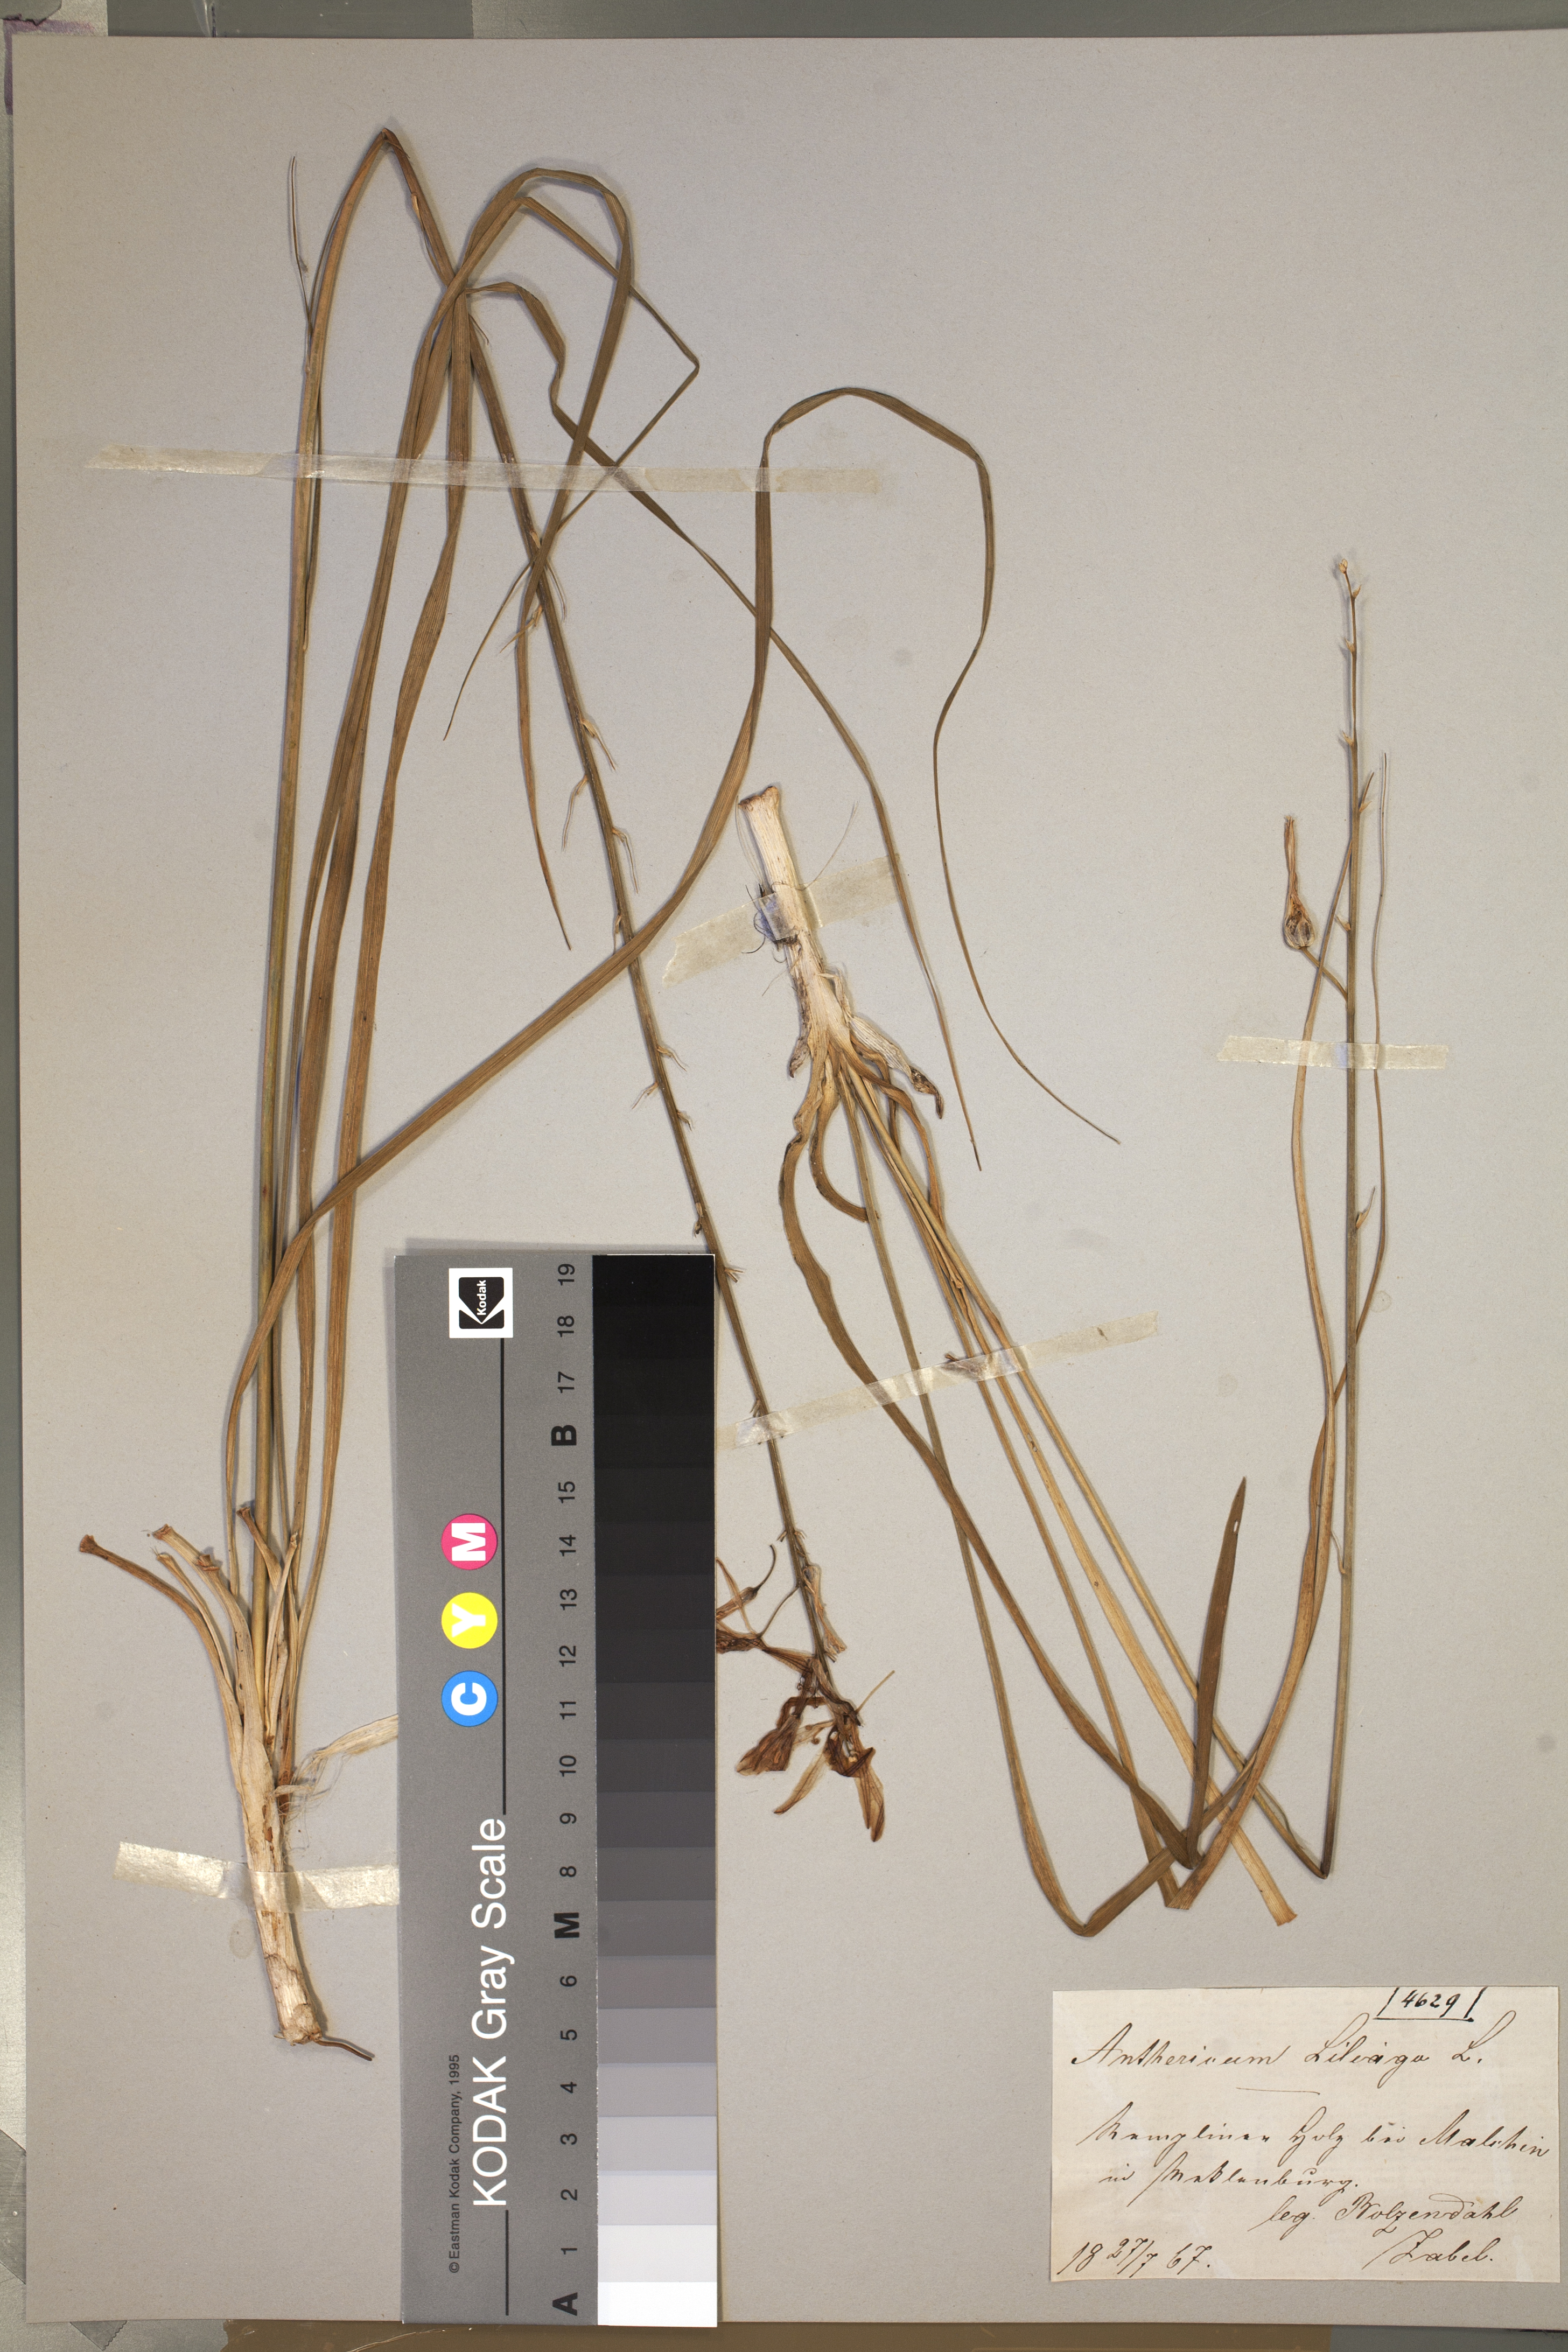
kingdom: Plantae
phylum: Tracheophyta
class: Liliopsida
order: Asparagales
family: Asparagaceae
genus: Anthericum
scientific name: Anthericum liliago
